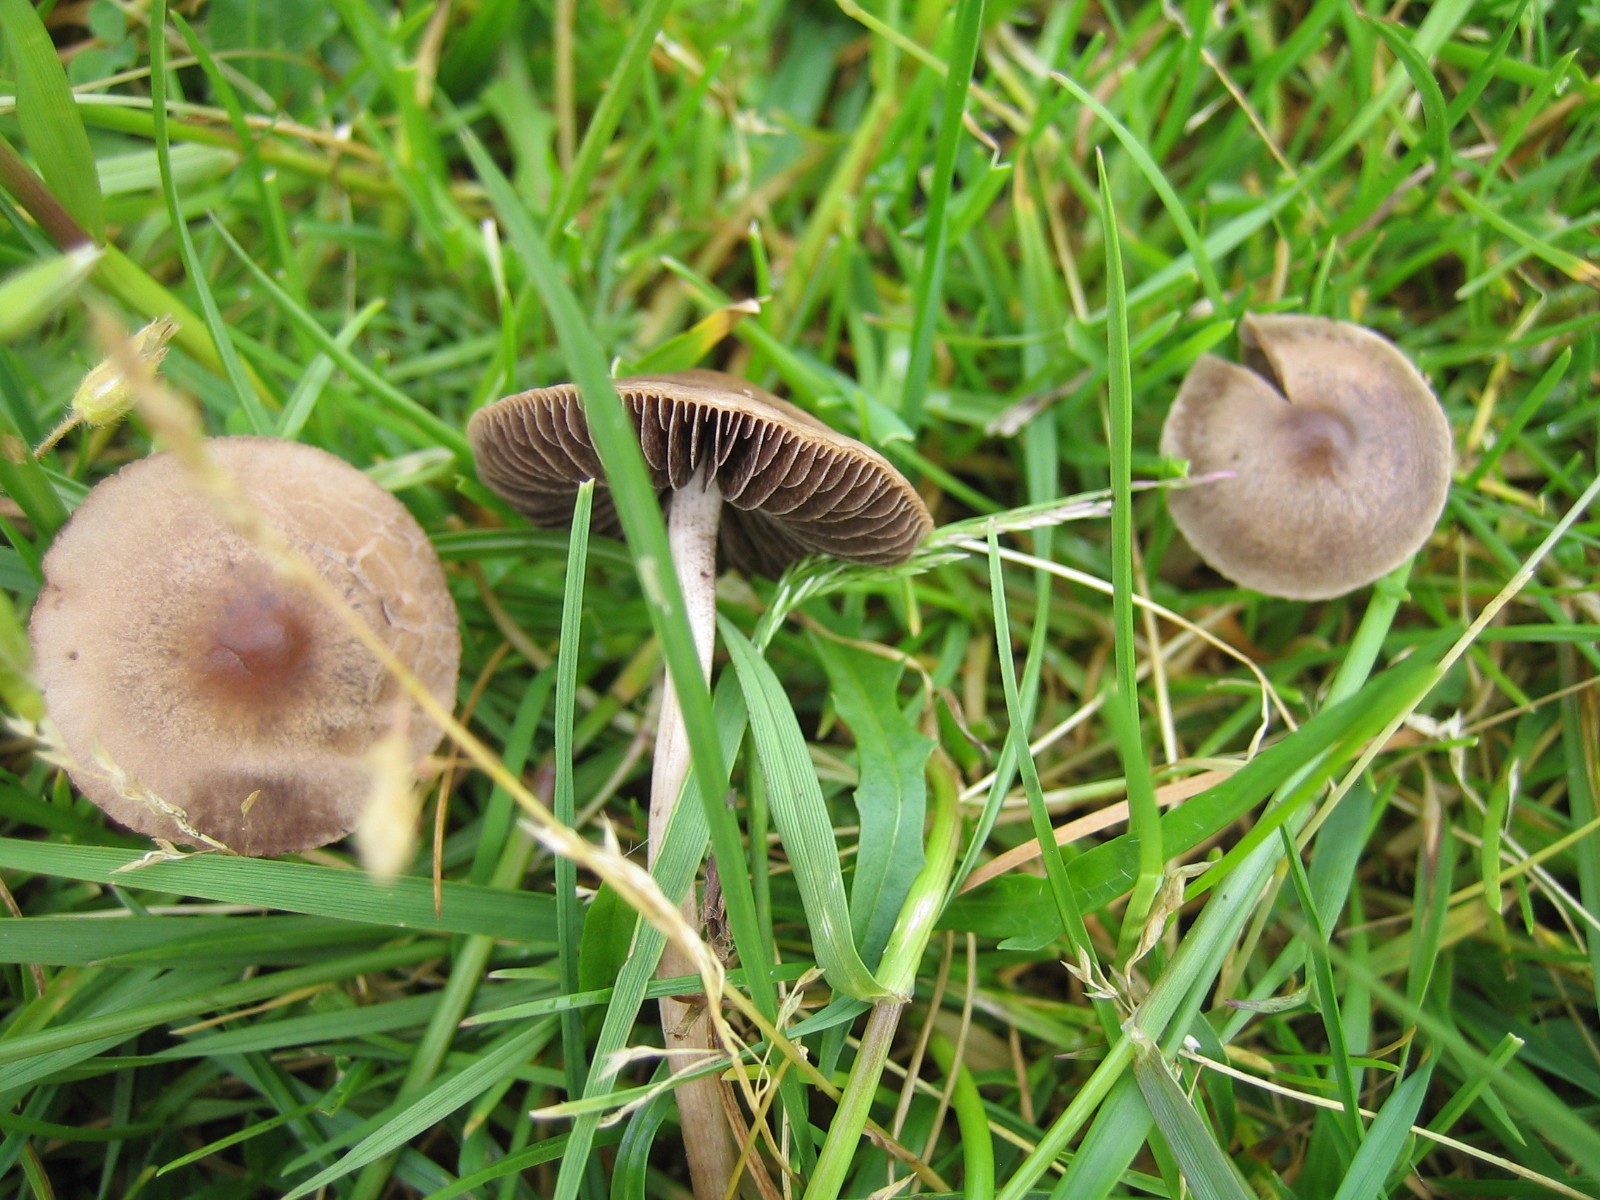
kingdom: Fungi
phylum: Basidiomycota
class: Agaricomycetes
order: Agaricales
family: Bolbitiaceae
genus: Panaeolina
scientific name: Panaeolina foenisecii
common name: høslætsvamp
